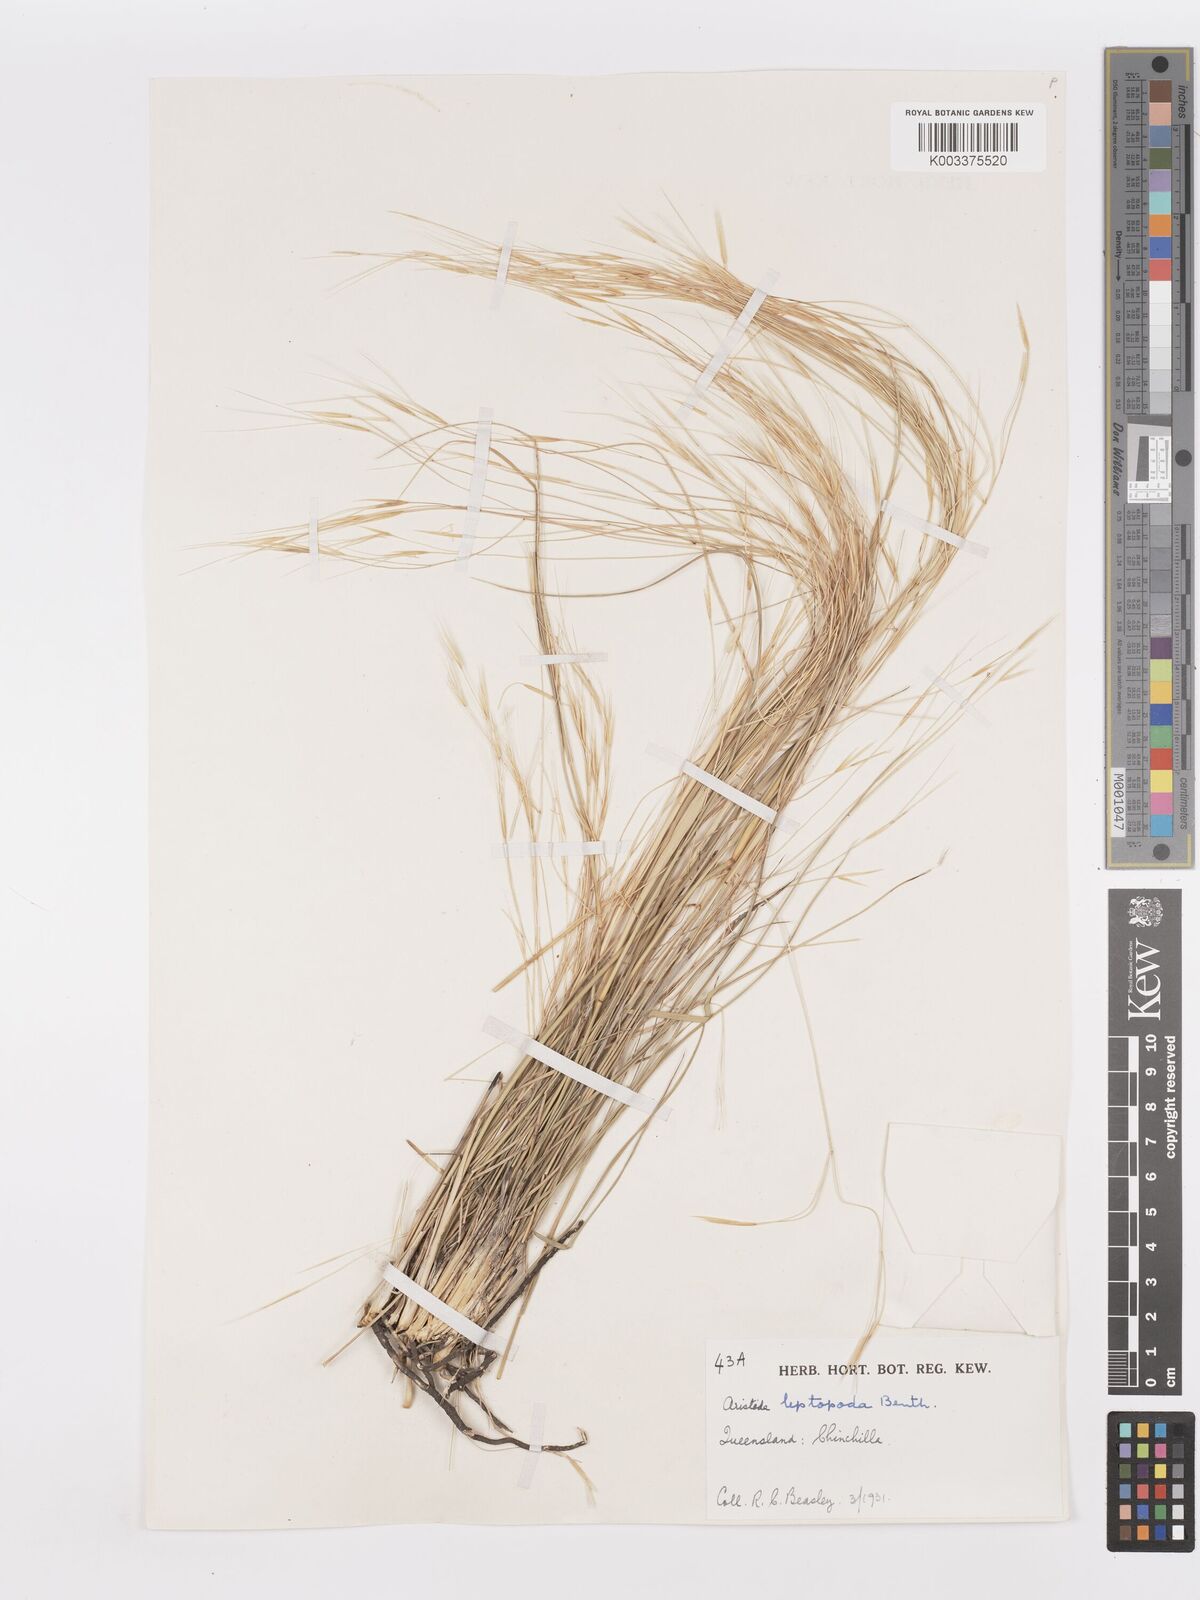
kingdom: Plantae
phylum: Tracheophyta
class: Liliopsida
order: Poales
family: Poaceae
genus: Aristida
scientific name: Aristida leptopoda
